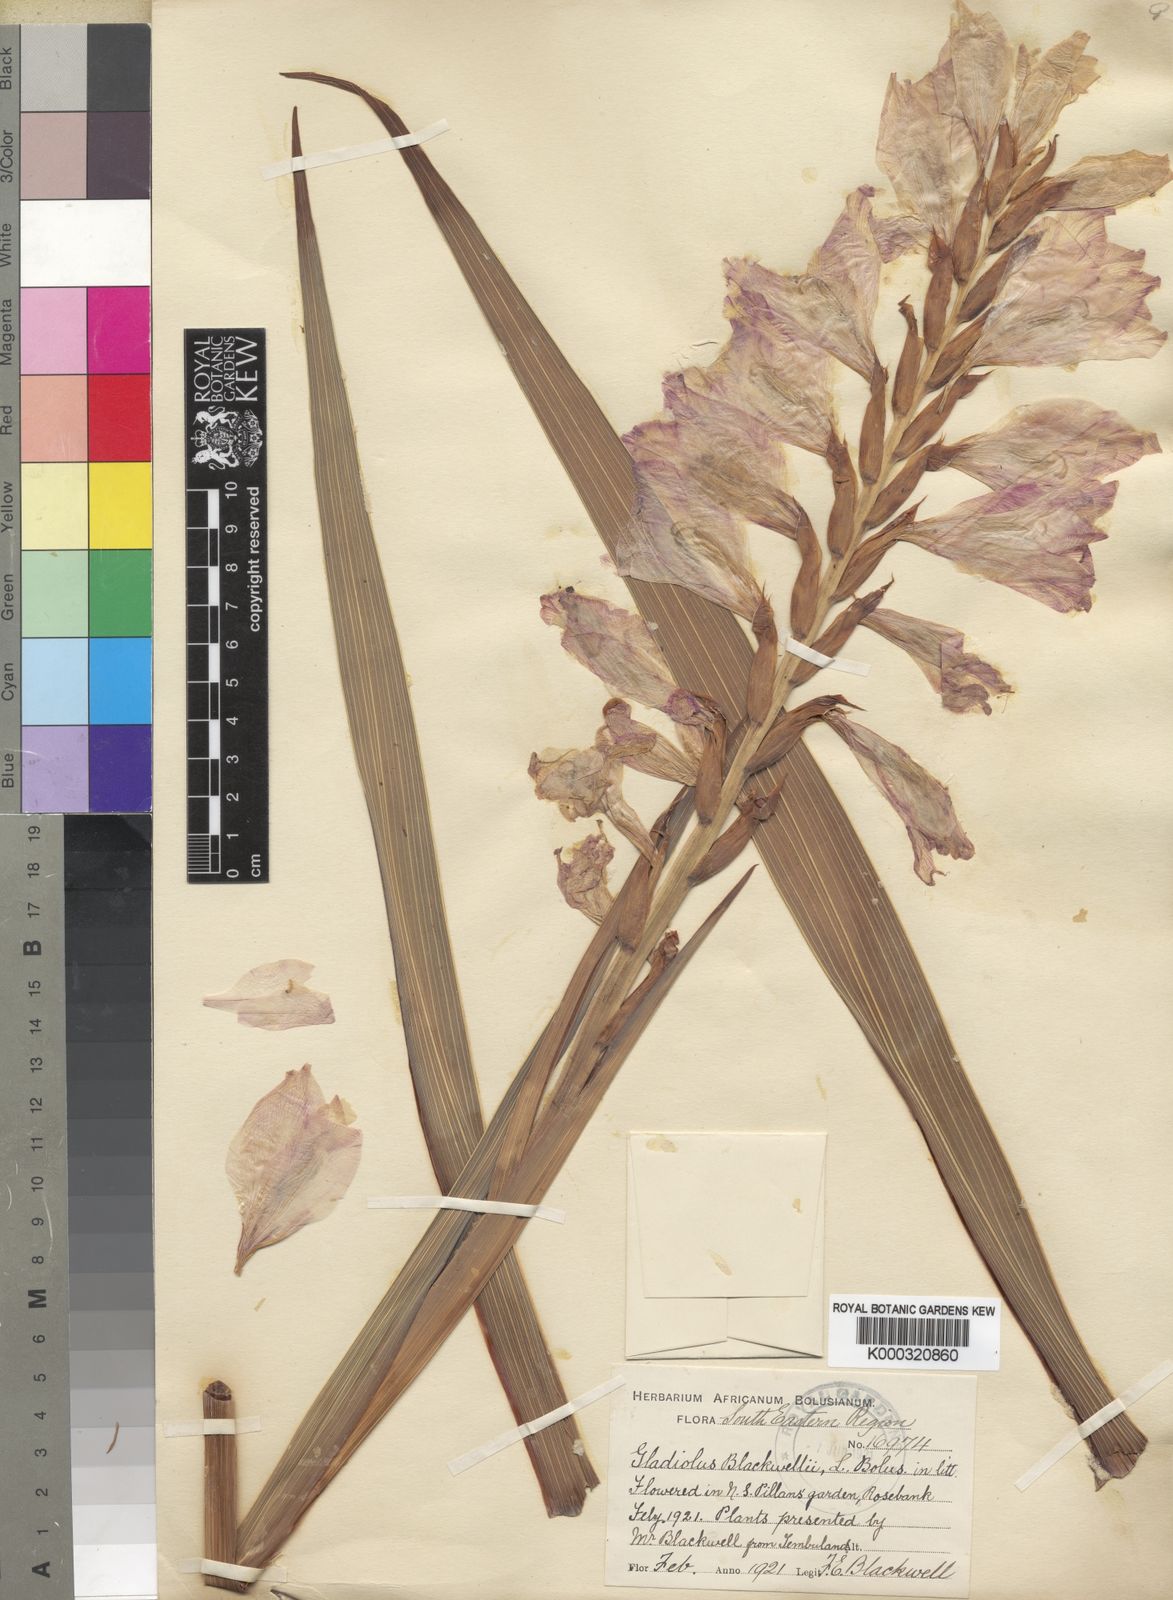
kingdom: Plantae
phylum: Tracheophyta
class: Liliopsida
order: Asparagales
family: Iridaceae
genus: Gladiolus
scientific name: Gladiolus oppositiflorus
